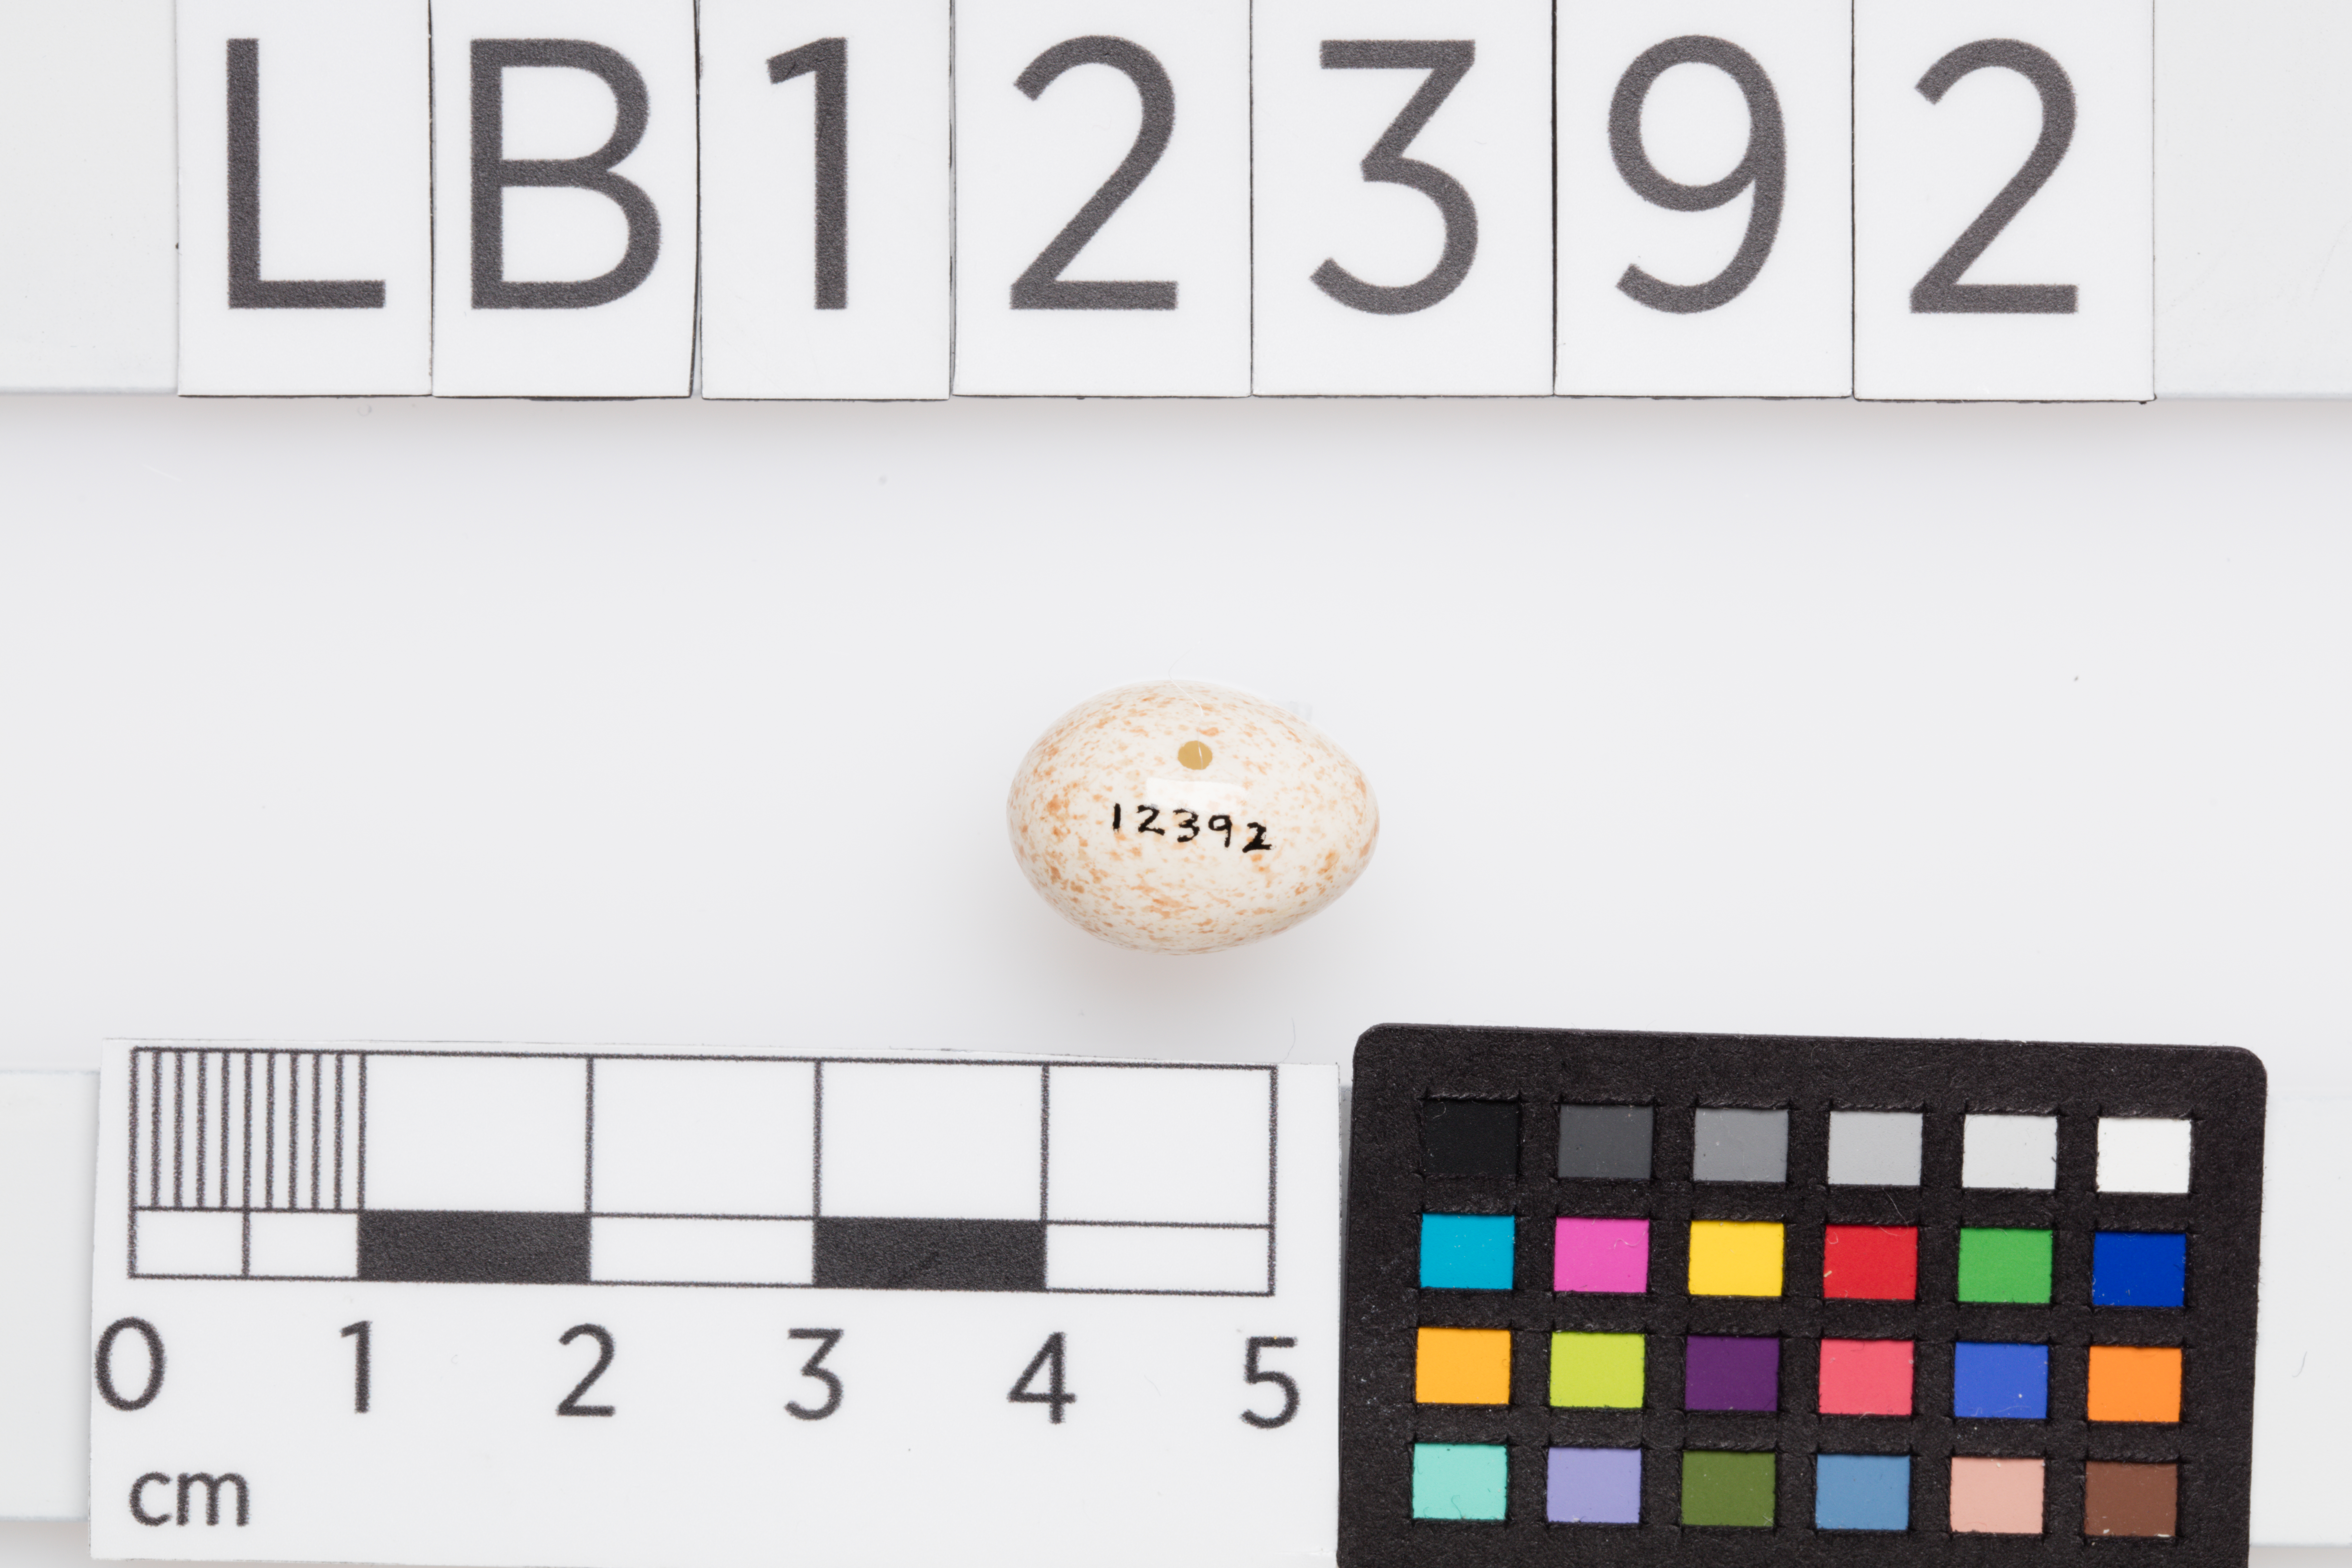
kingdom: Animalia
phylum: Chordata
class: Aves
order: Passeriformes
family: Phylloscopidae
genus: Phylloscopus
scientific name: Phylloscopus trochilus
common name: Willow warbler
